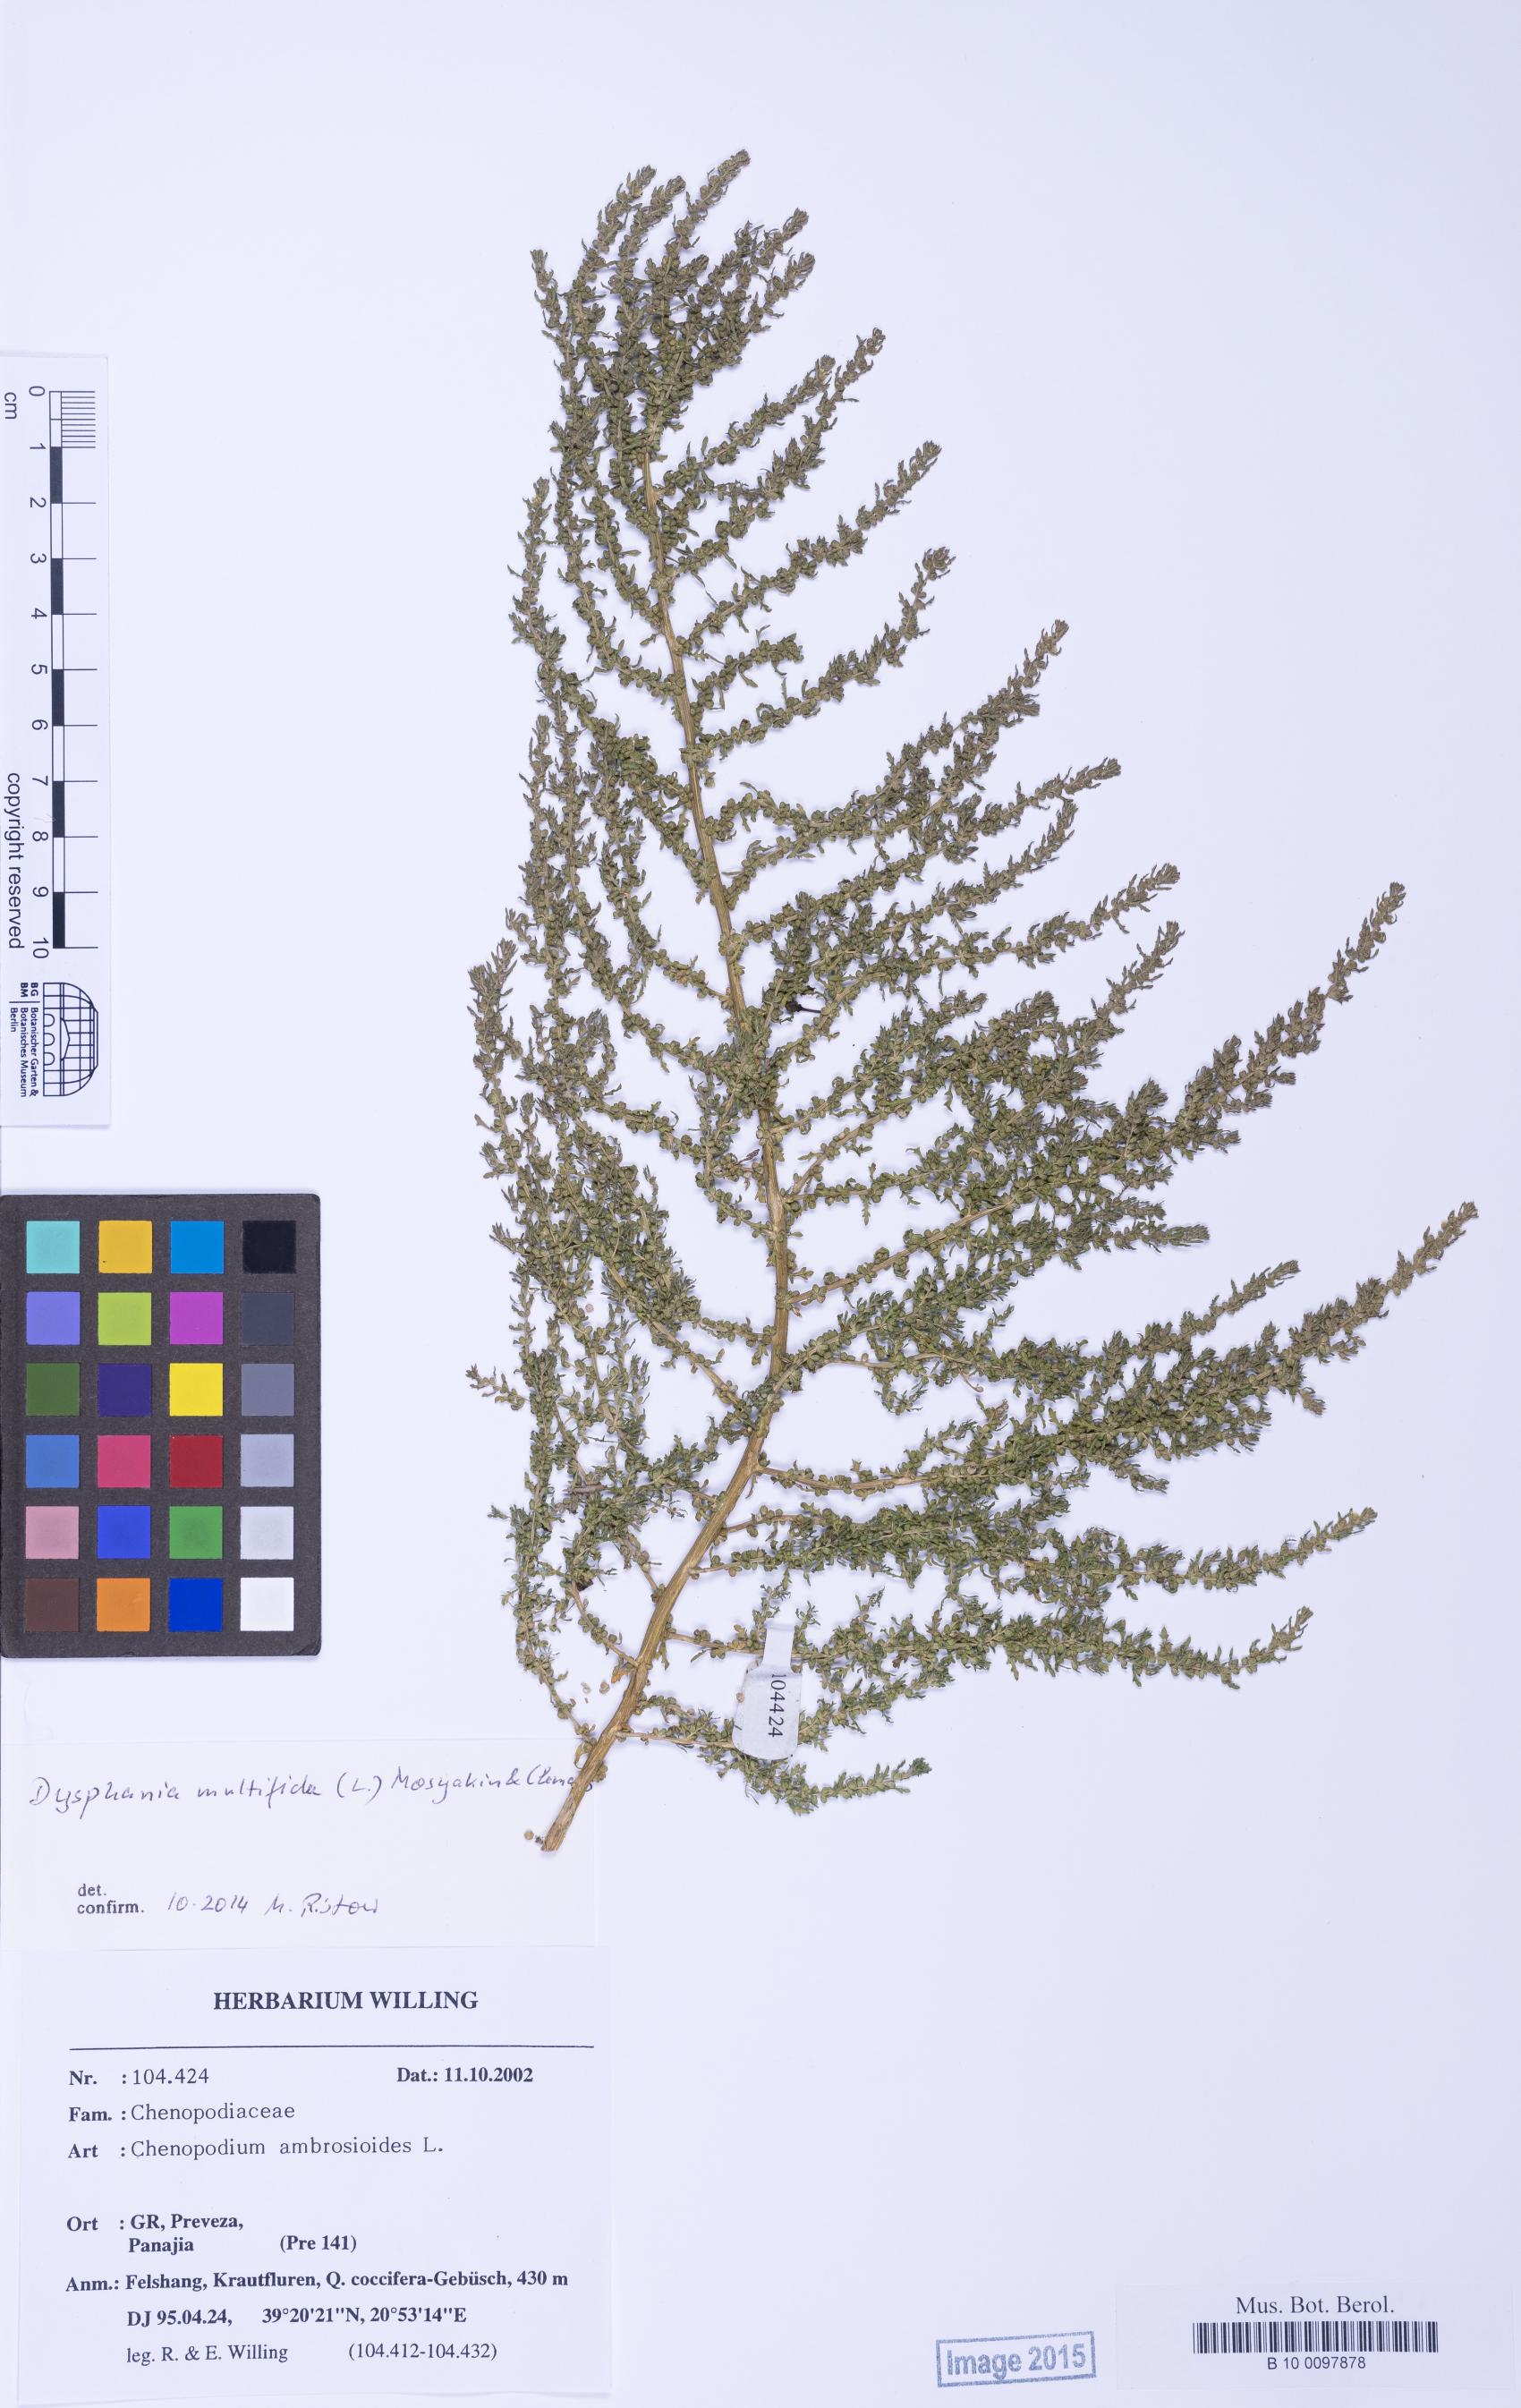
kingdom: Plantae
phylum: Tracheophyta
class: Magnoliopsida
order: Caryophyllales
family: Amaranthaceae
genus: Dysphania
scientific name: Dysphania multifida
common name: Cutleaf goosefoot
